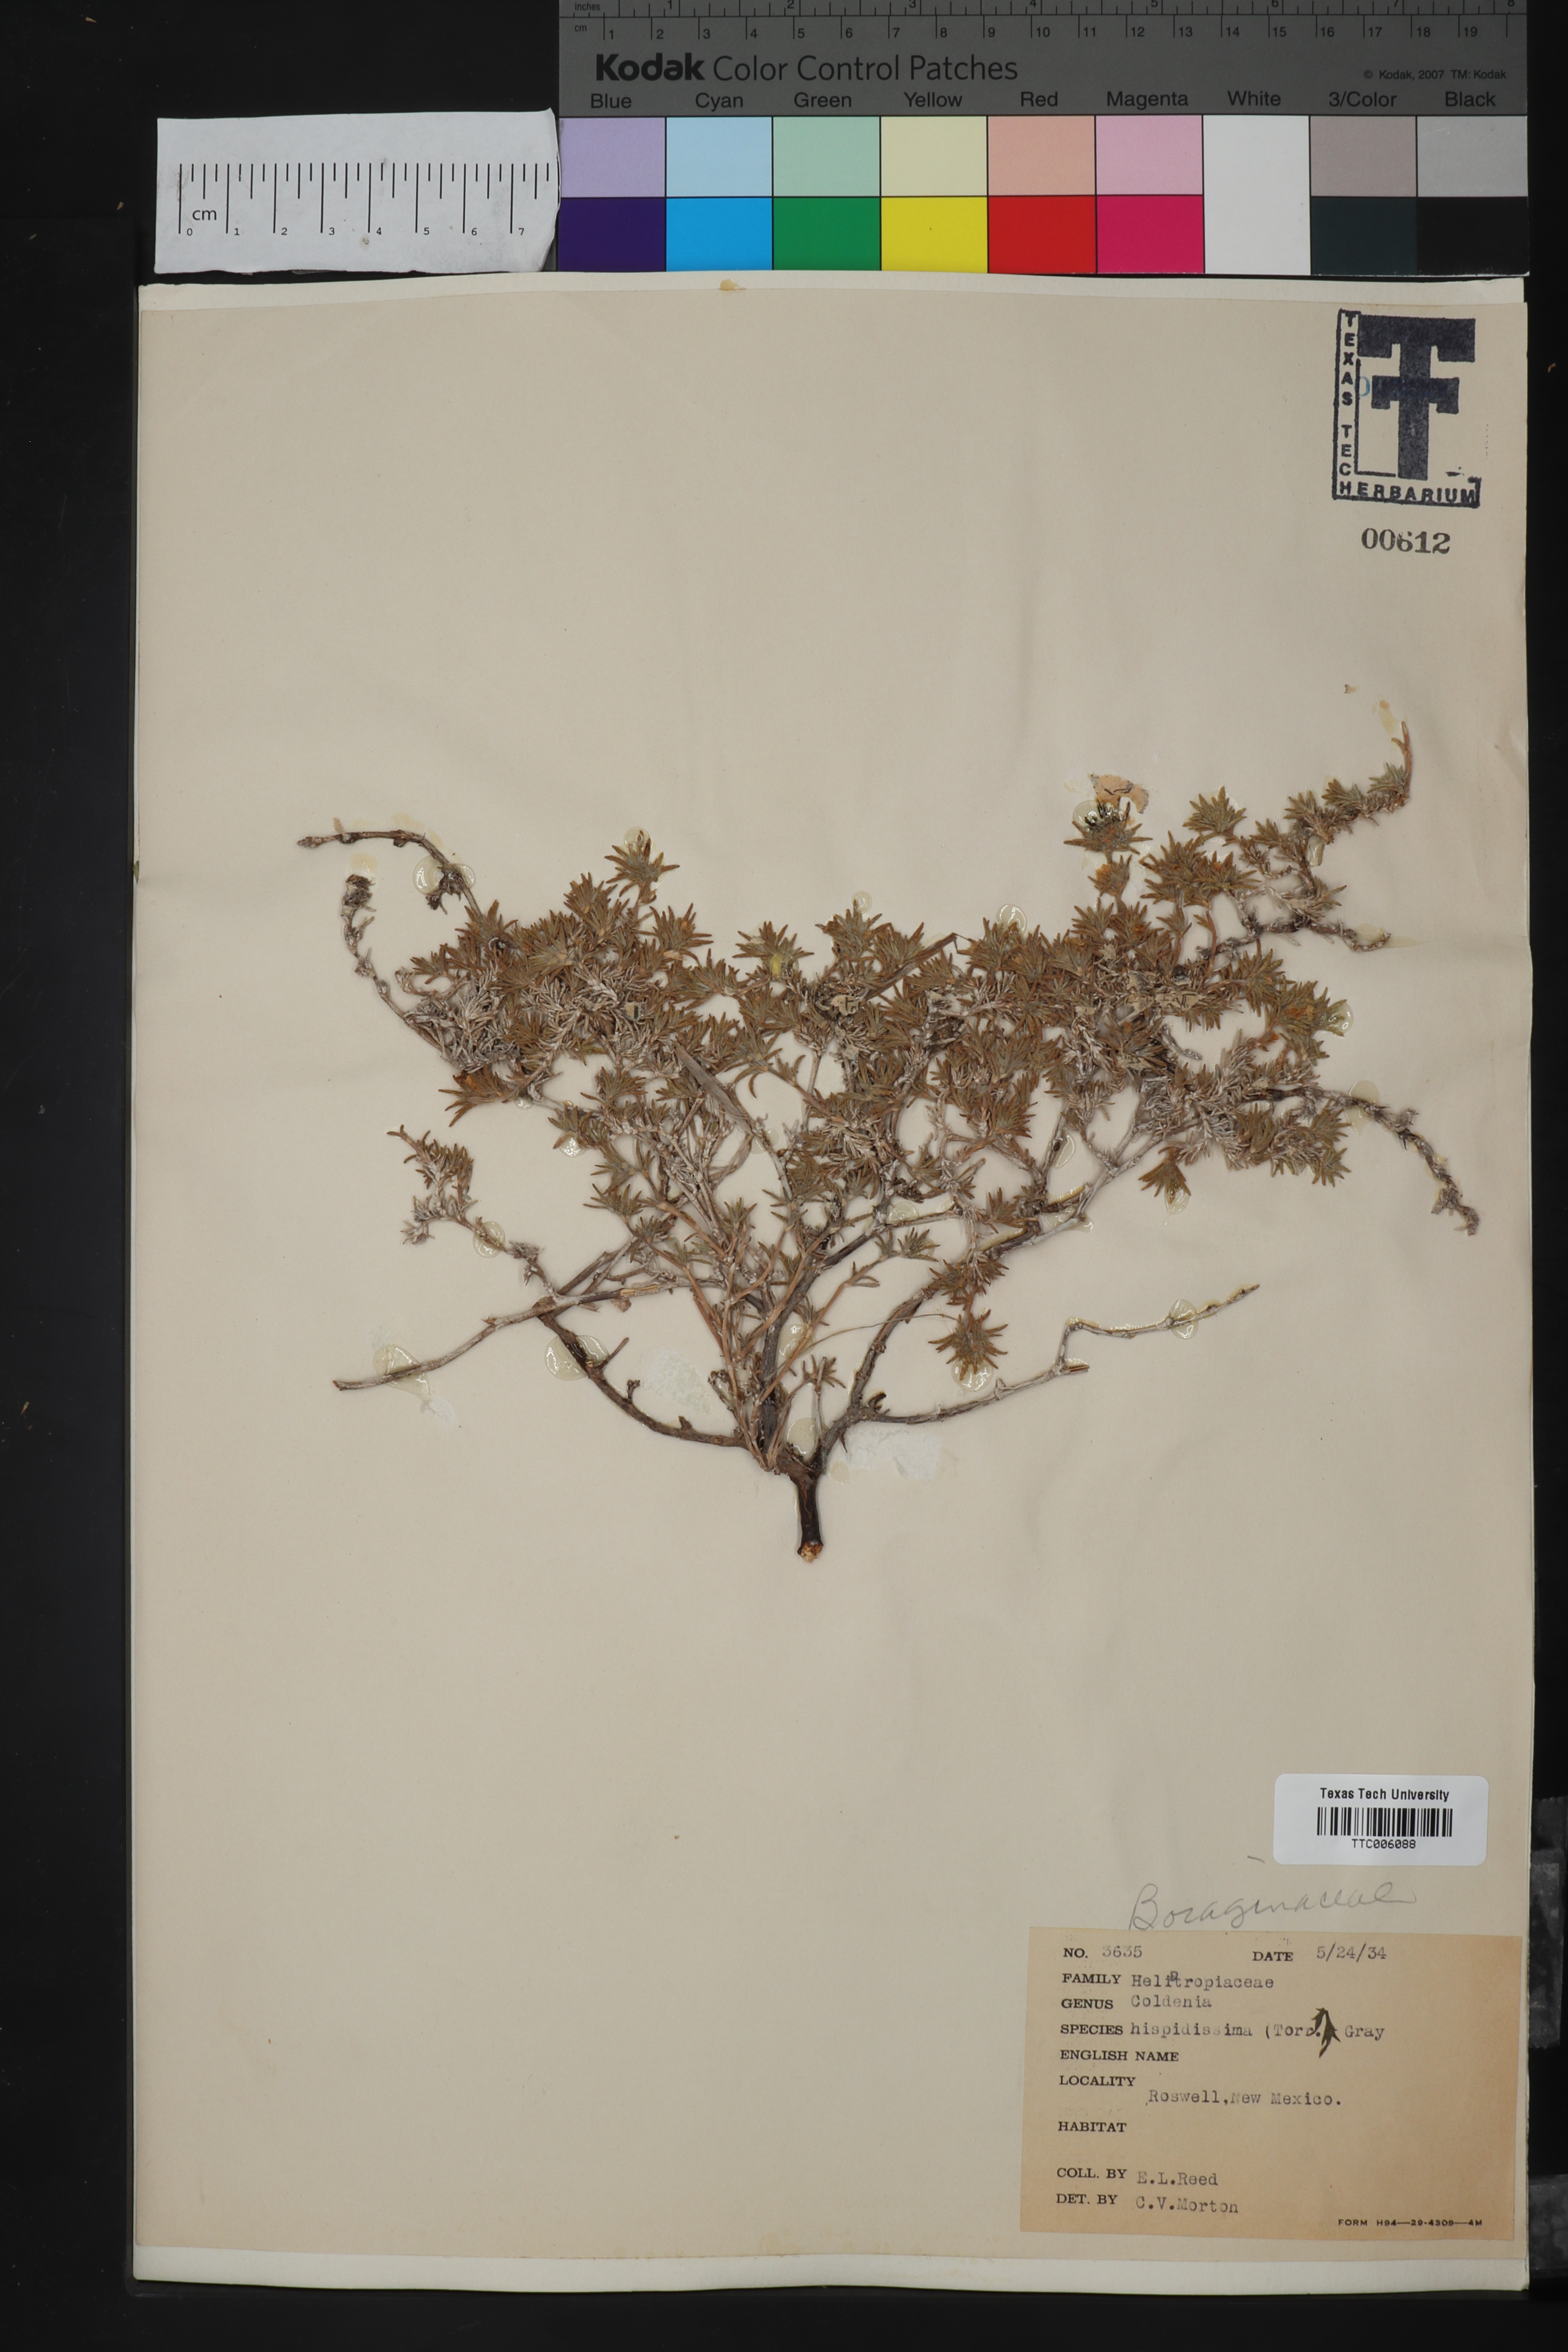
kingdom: Plantae
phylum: Tracheophyta
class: Magnoliopsida
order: Boraginales
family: Ehretiaceae
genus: Tiquilia
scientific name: Tiquilia hispidissima
